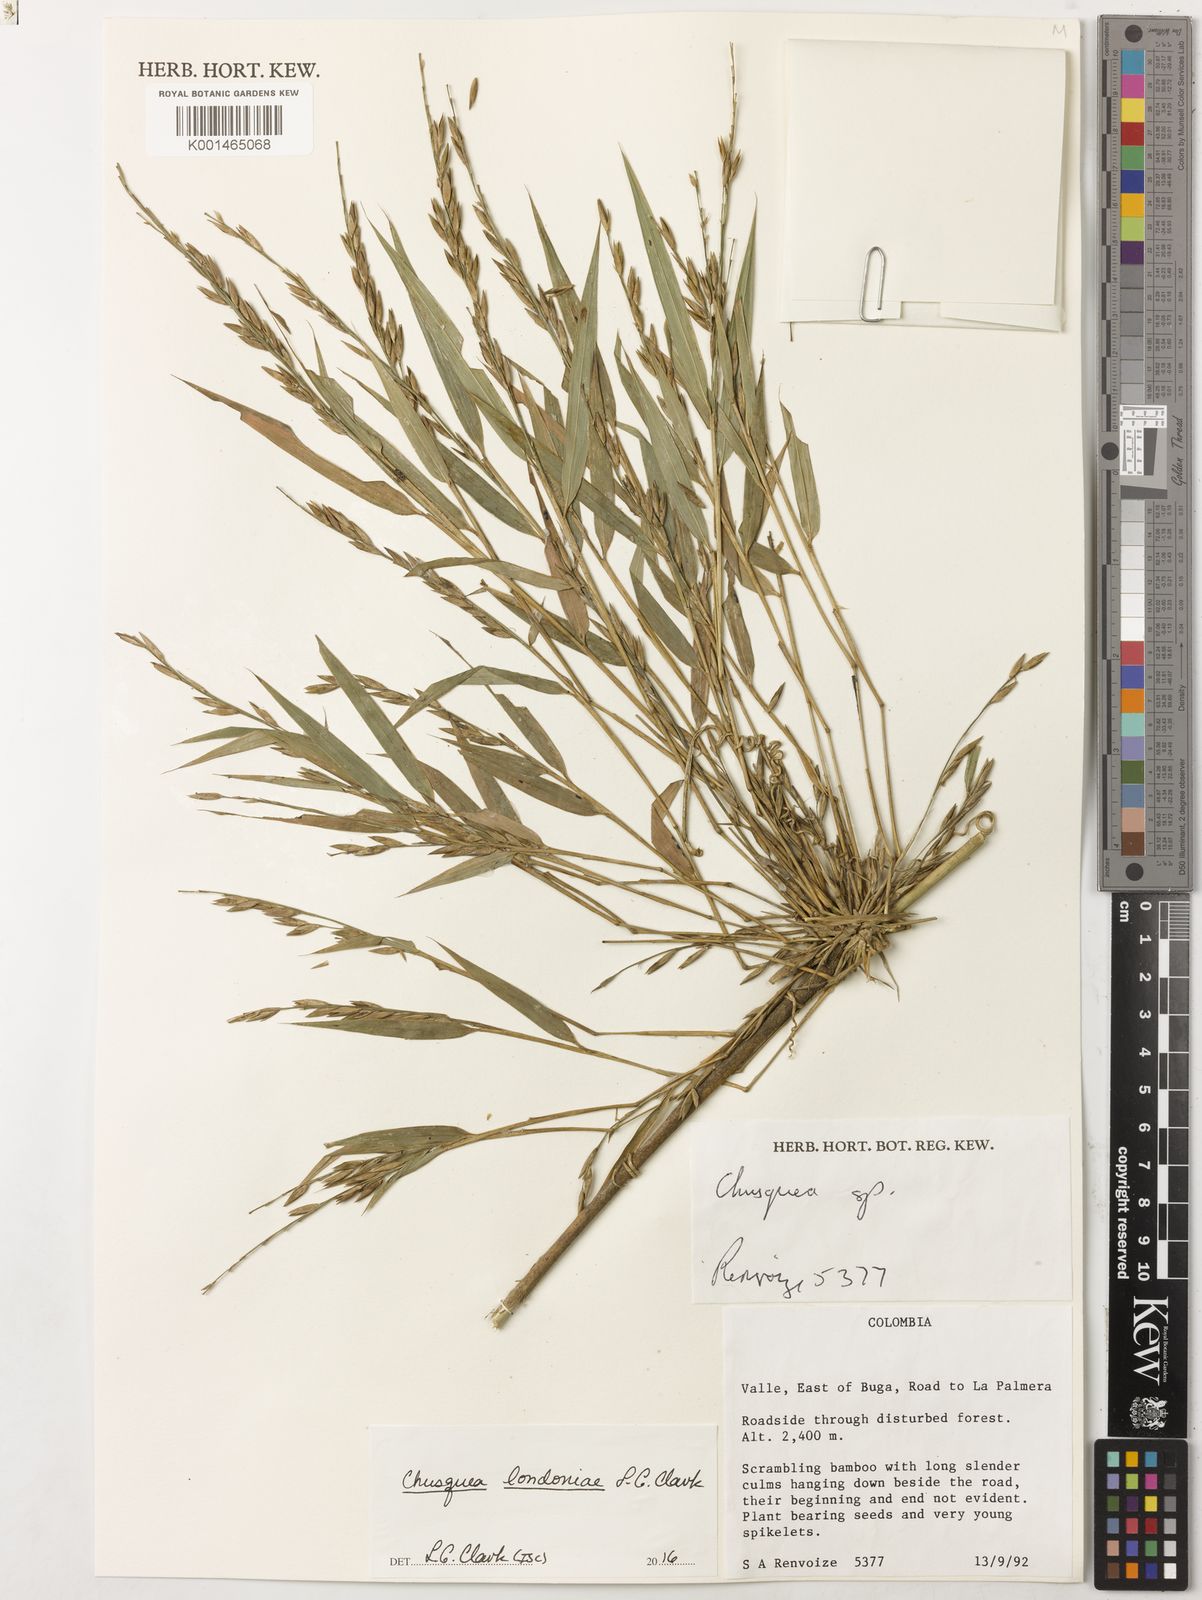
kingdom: Plantae
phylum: Tracheophyta
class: Liliopsida
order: Poales
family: Poaceae
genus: Chusquea
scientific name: Chusquea londoniae
